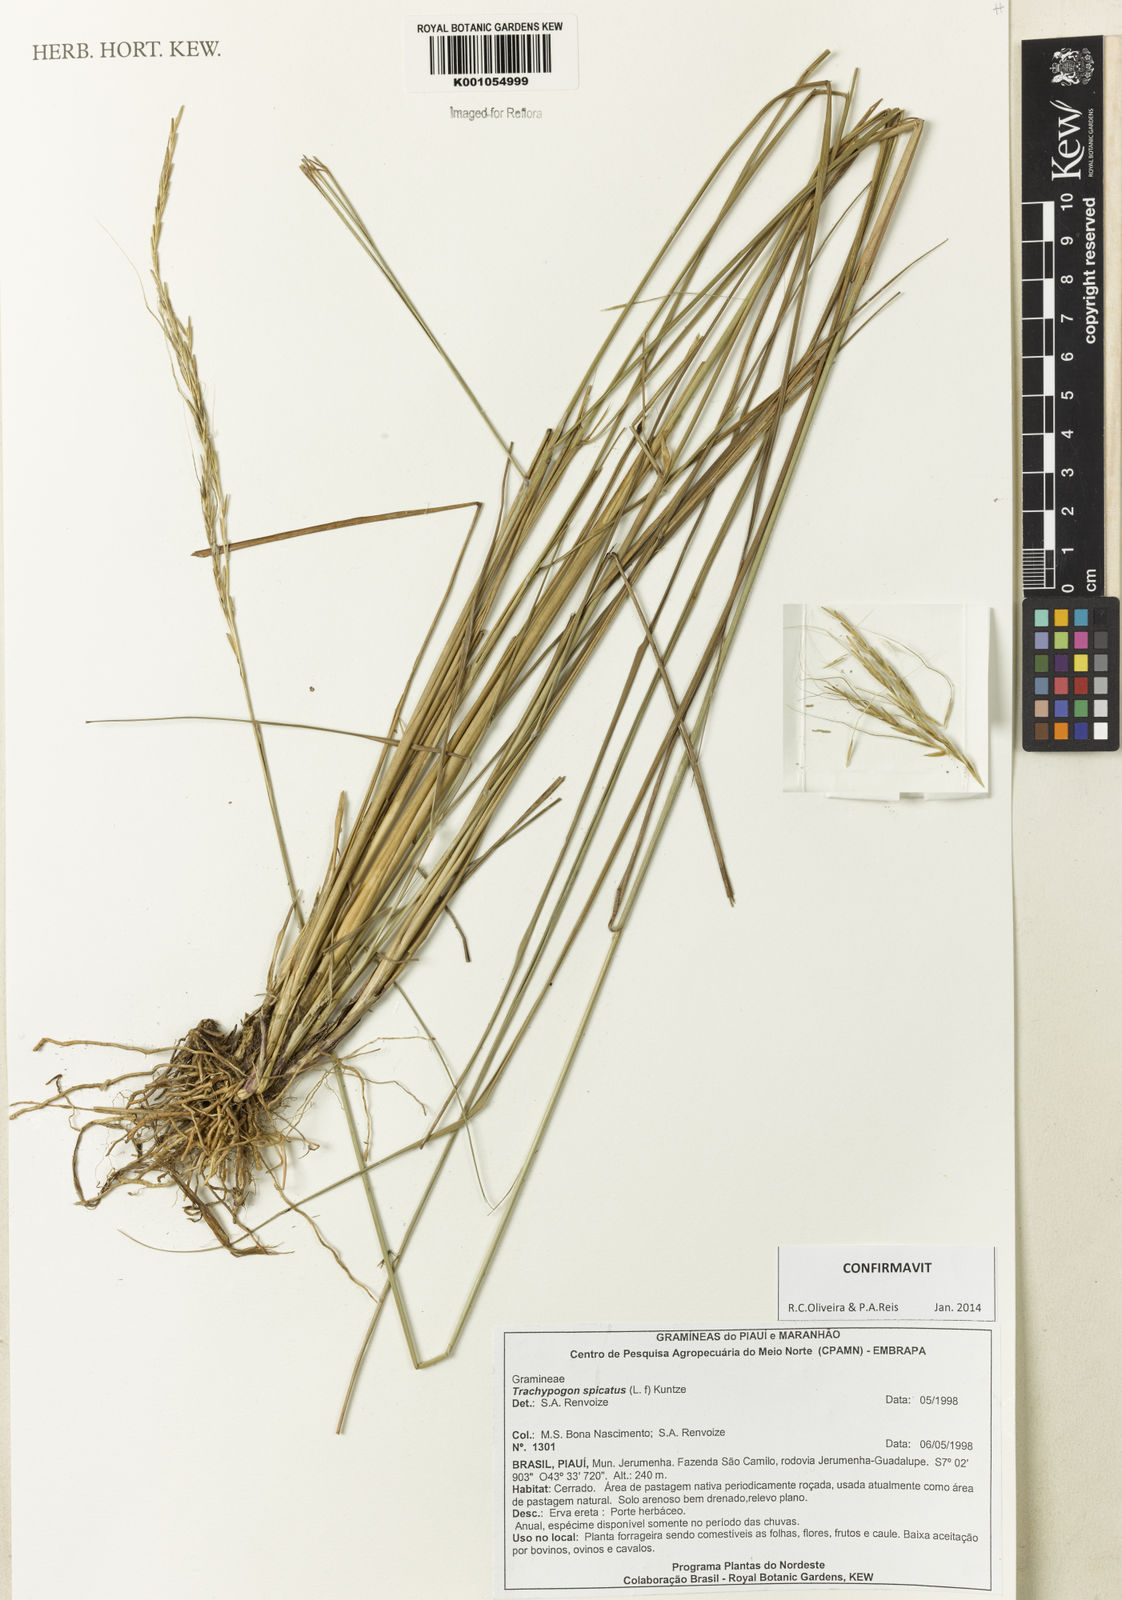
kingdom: Plantae
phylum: Tracheophyta
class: Liliopsida
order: Poales
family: Poaceae
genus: Trachypogon
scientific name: Trachypogon spicatus
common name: Crinkle-awn
